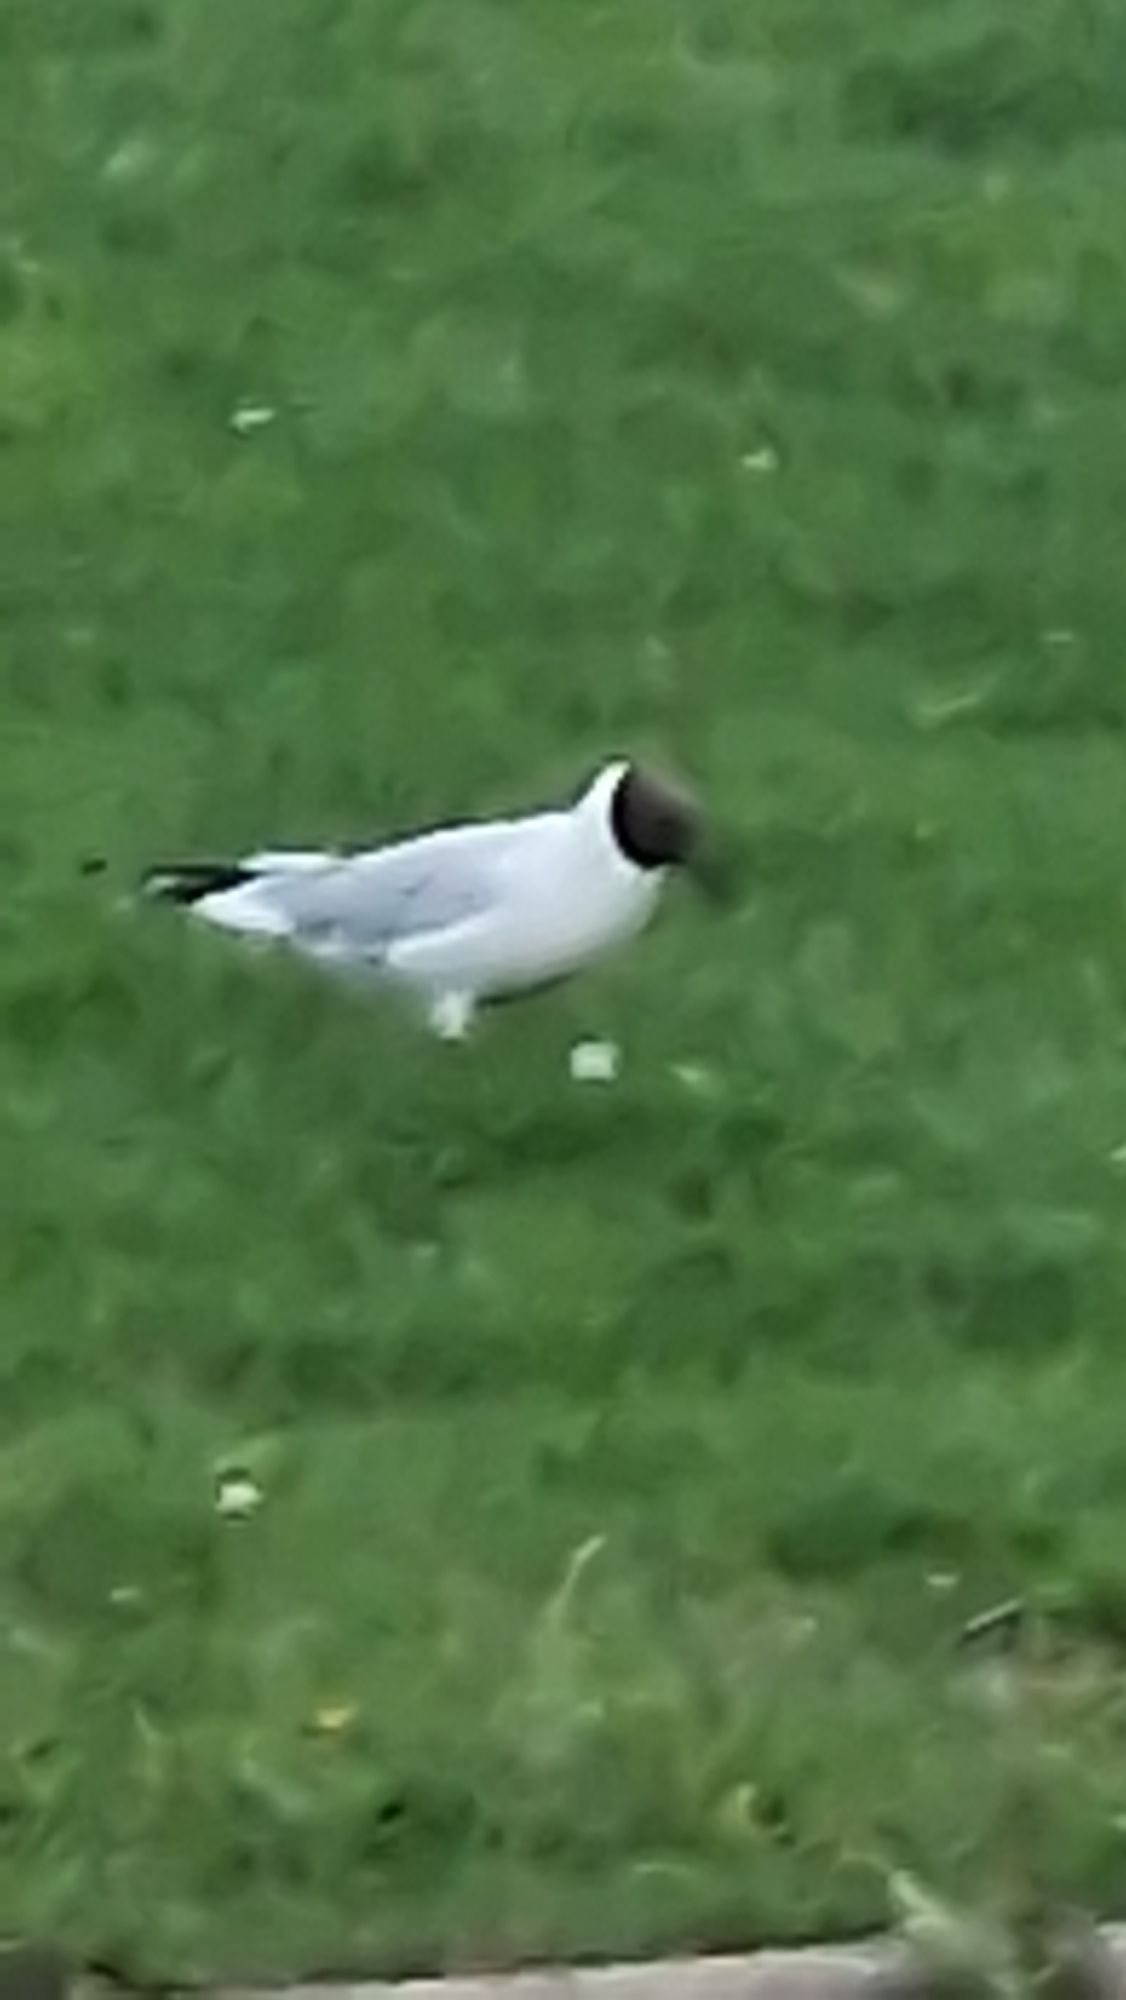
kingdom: Animalia
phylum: Chordata
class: Aves
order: Charadriiformes
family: Laridae
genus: Chroicocephalus
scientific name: Chroicocephalus ridibundus
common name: Hættemåge
